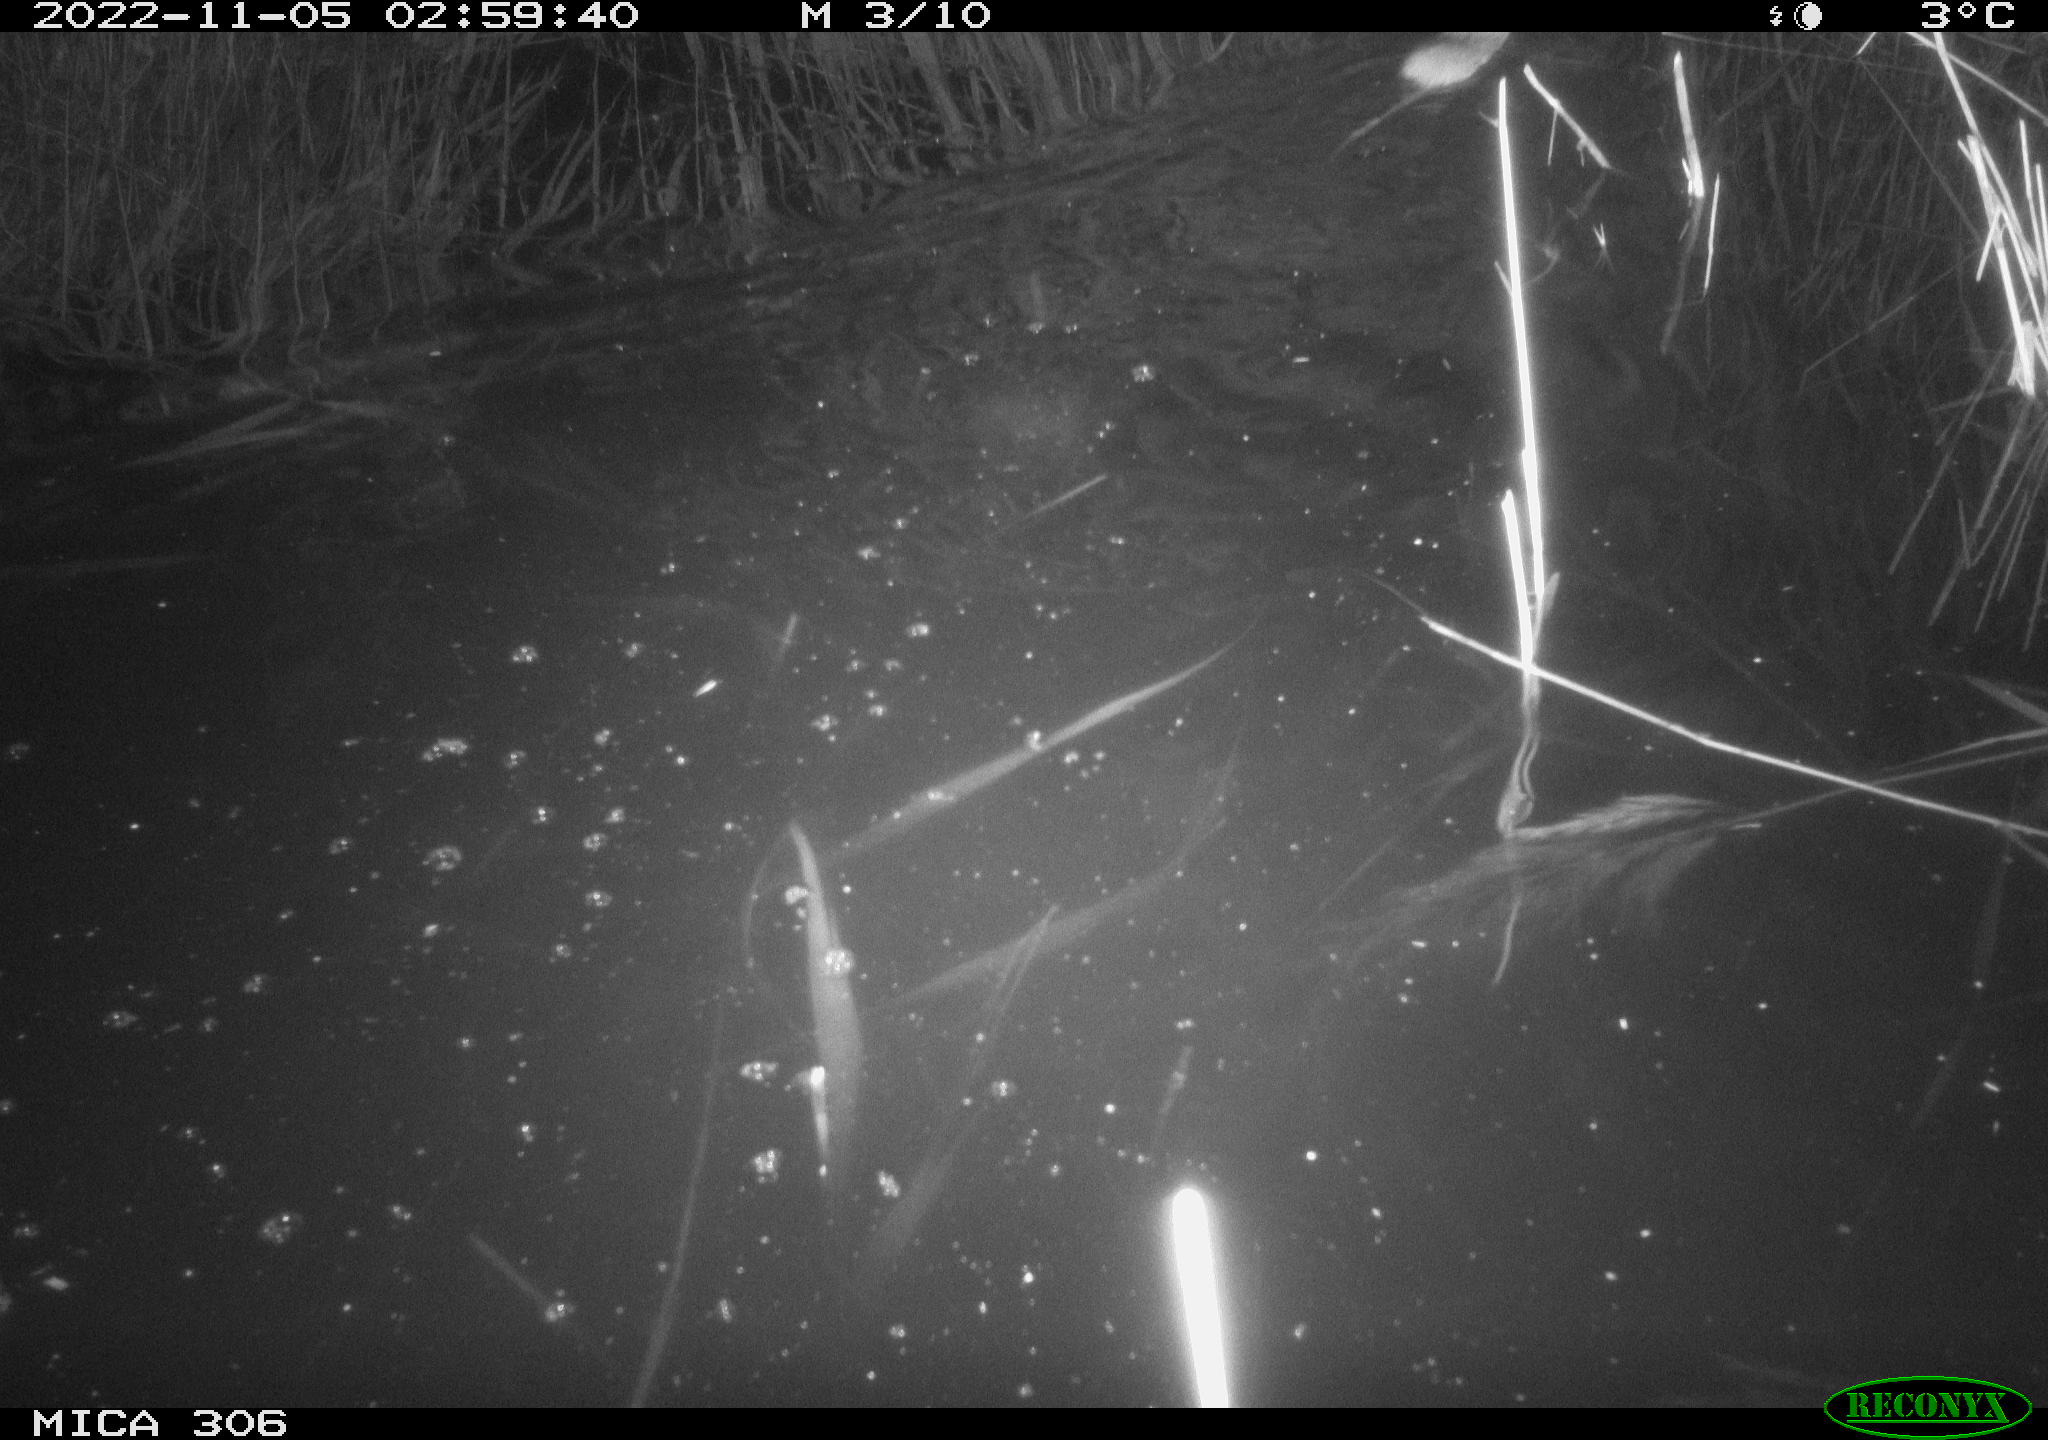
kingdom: Animalia
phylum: Chordata
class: Mammalia
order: Rodentia
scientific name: Rodentia
